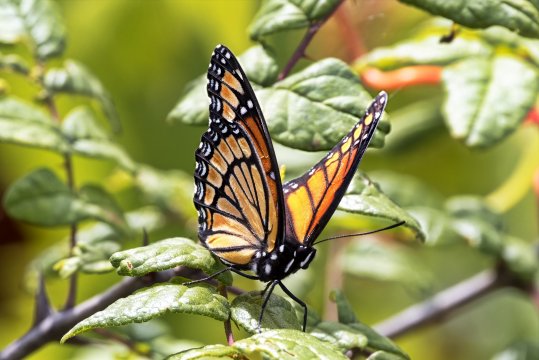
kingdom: Animalia
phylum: Arthropoda
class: Insecta
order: Lepidoptera
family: Nymphalidae
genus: Limenitis
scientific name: Limenitis archippus
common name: Viceroy
